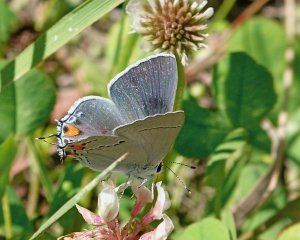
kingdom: Animalia
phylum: Arthropoda
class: Insecta
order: Lepidoptera
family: Lycaenidae
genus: Strymon
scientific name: Strymon melinus
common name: Gray Hairstreak
